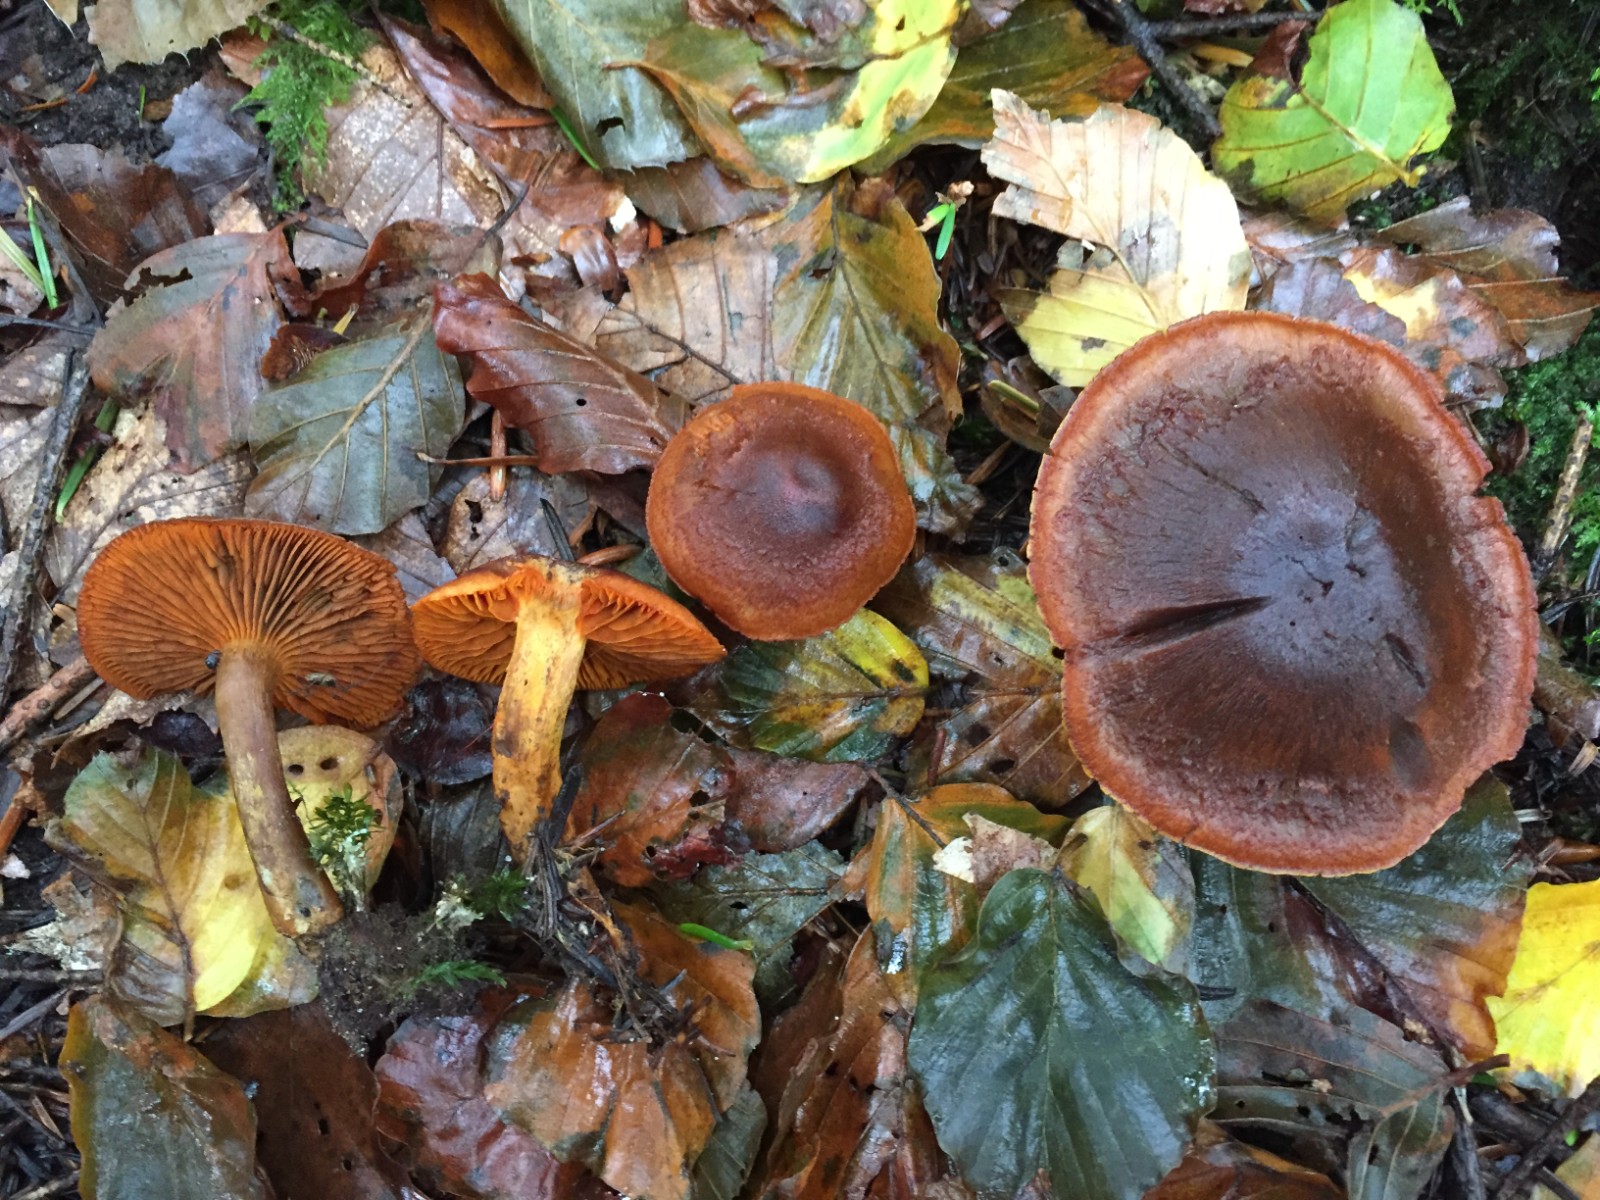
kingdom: Fungi
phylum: Basidiomycota
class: Agaricomycetes
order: Agaricales
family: Cortinariaceae
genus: Cortinarius
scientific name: Cortinarius malicorius
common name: grønkødet slørhat
